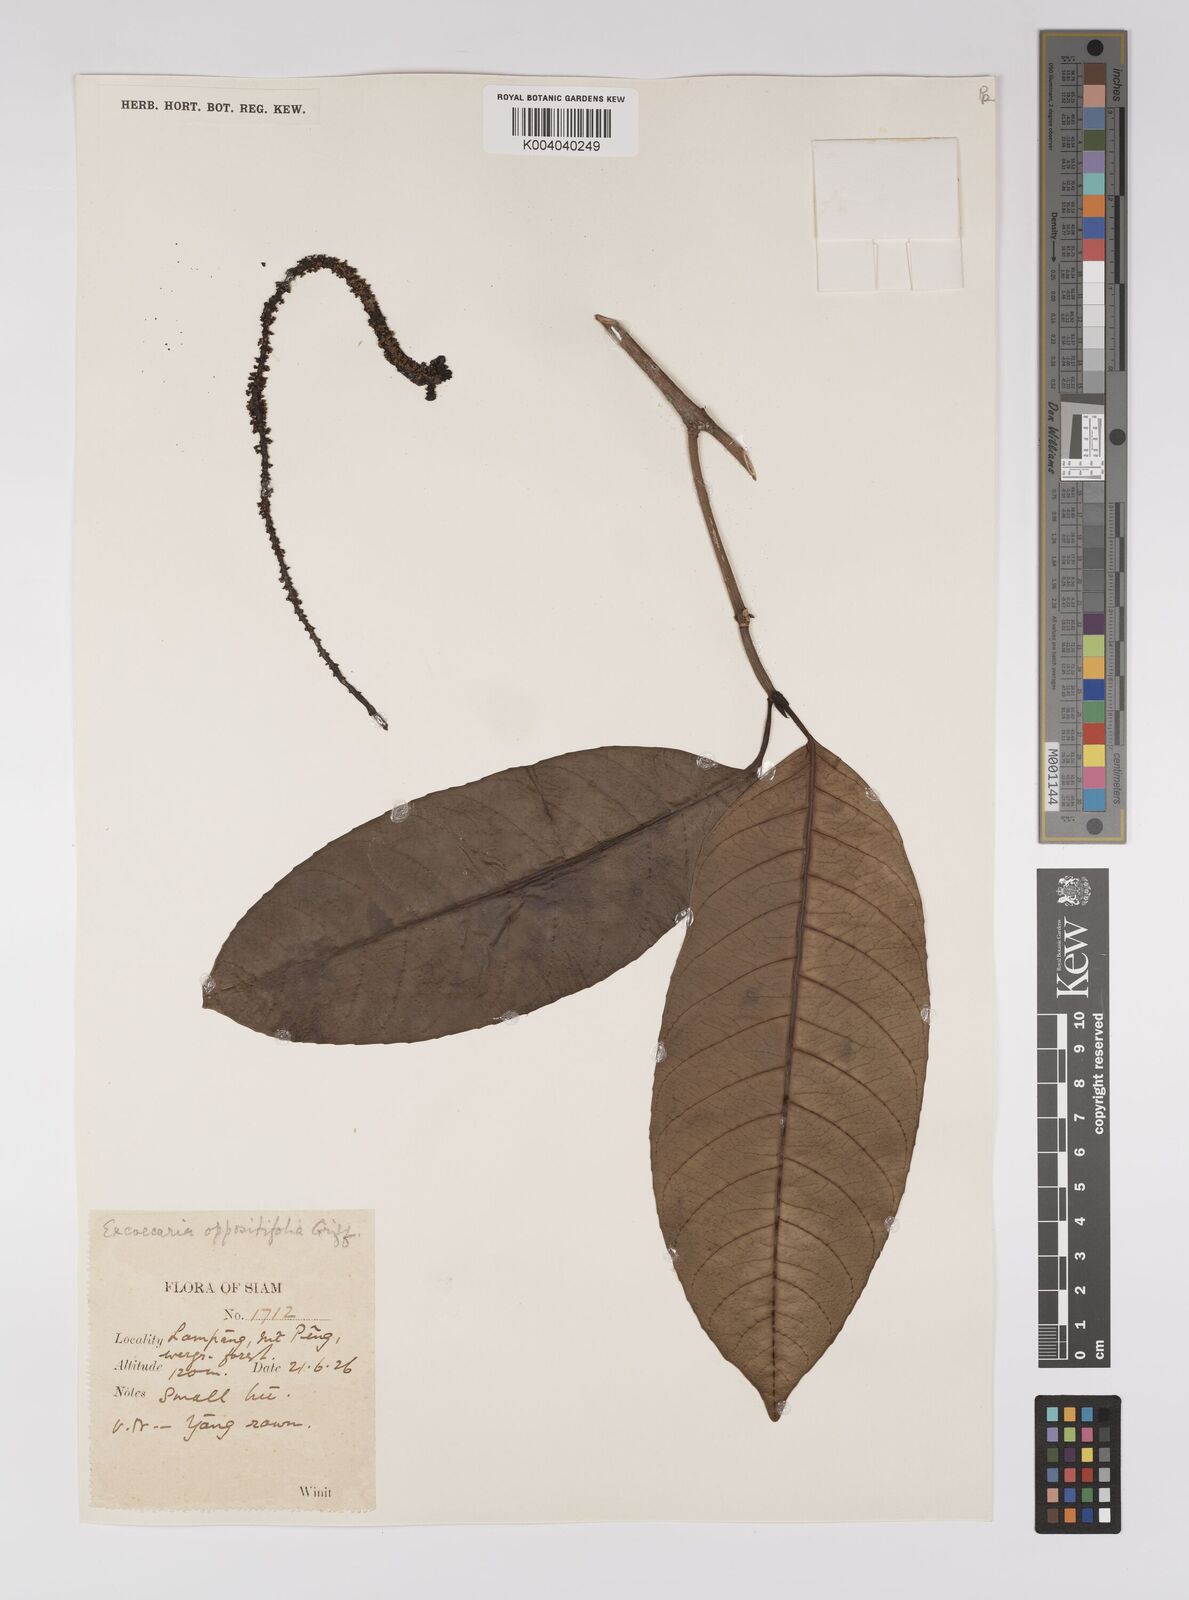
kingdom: Plantae
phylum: Tracheophyta
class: Magnoliopsida
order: Malpighiales
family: Euphorbiaceae
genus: Excoecaria
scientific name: Excoecaria oppositifolia
